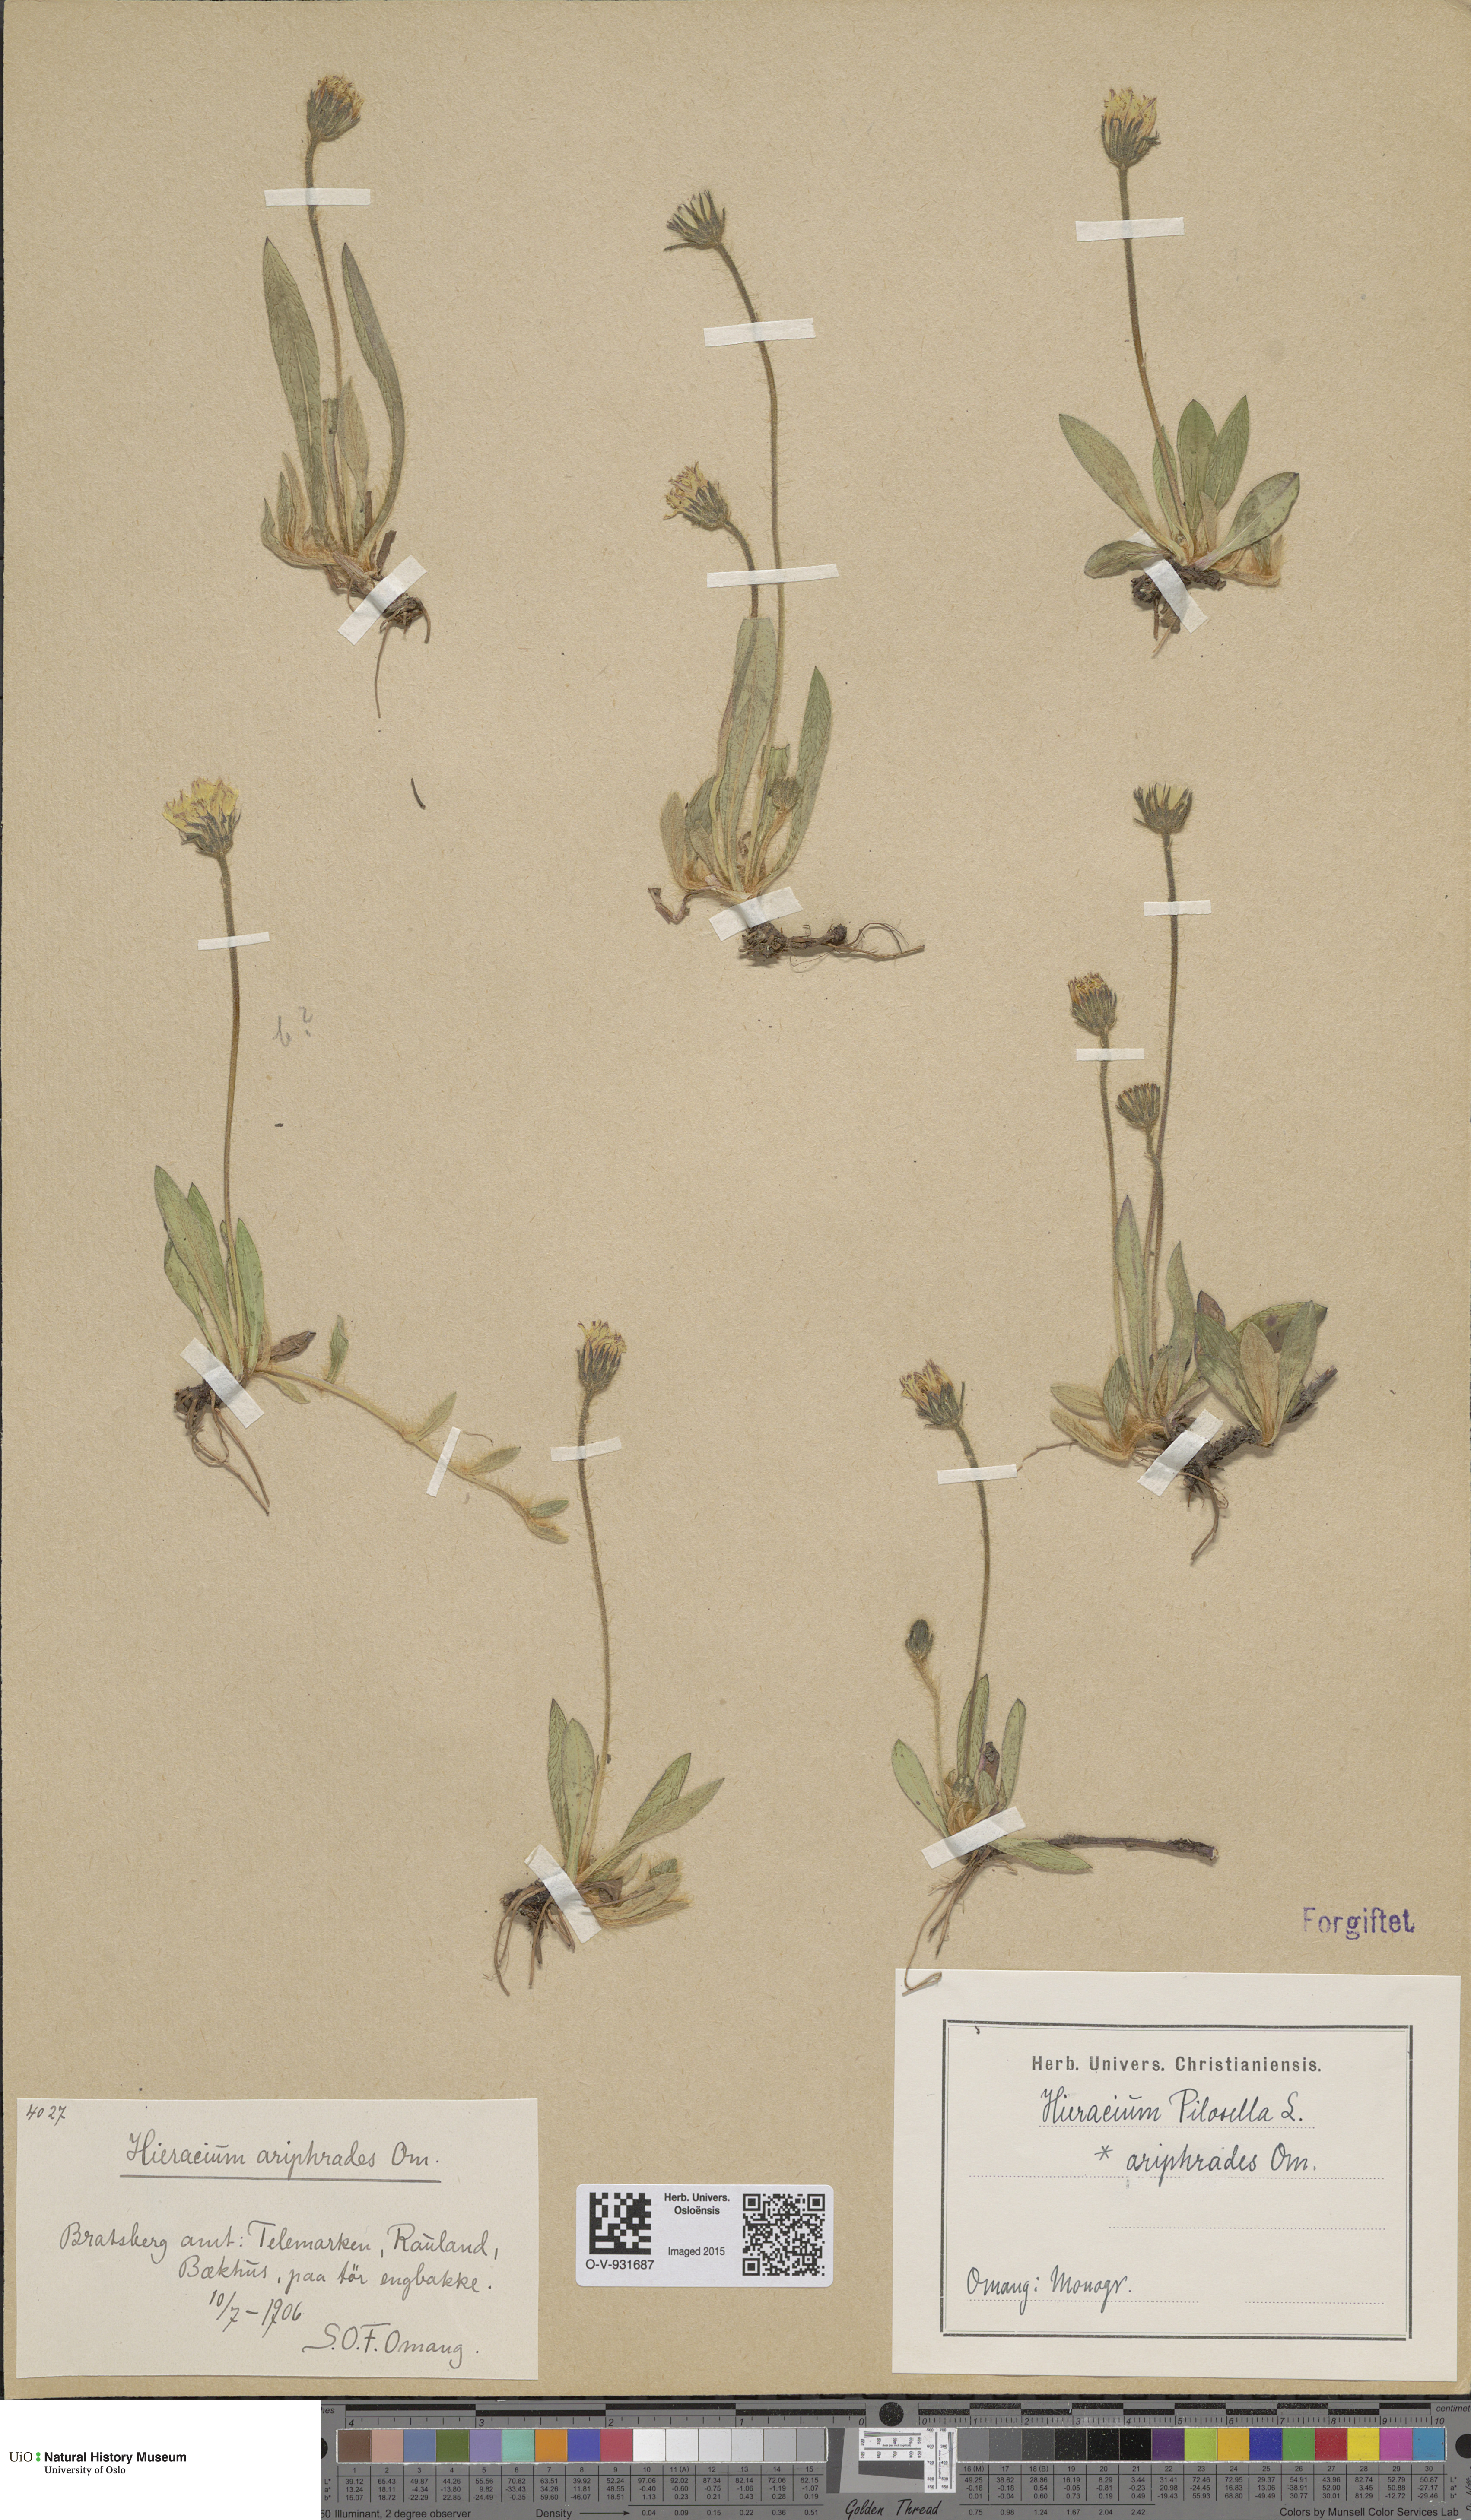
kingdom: Plantae
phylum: Tracheophyta
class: Magnoliopsida
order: Asterales
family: Asteraceae
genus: Pilosella
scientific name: Pilosella officinarum
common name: Mouse-ear hawkweed
